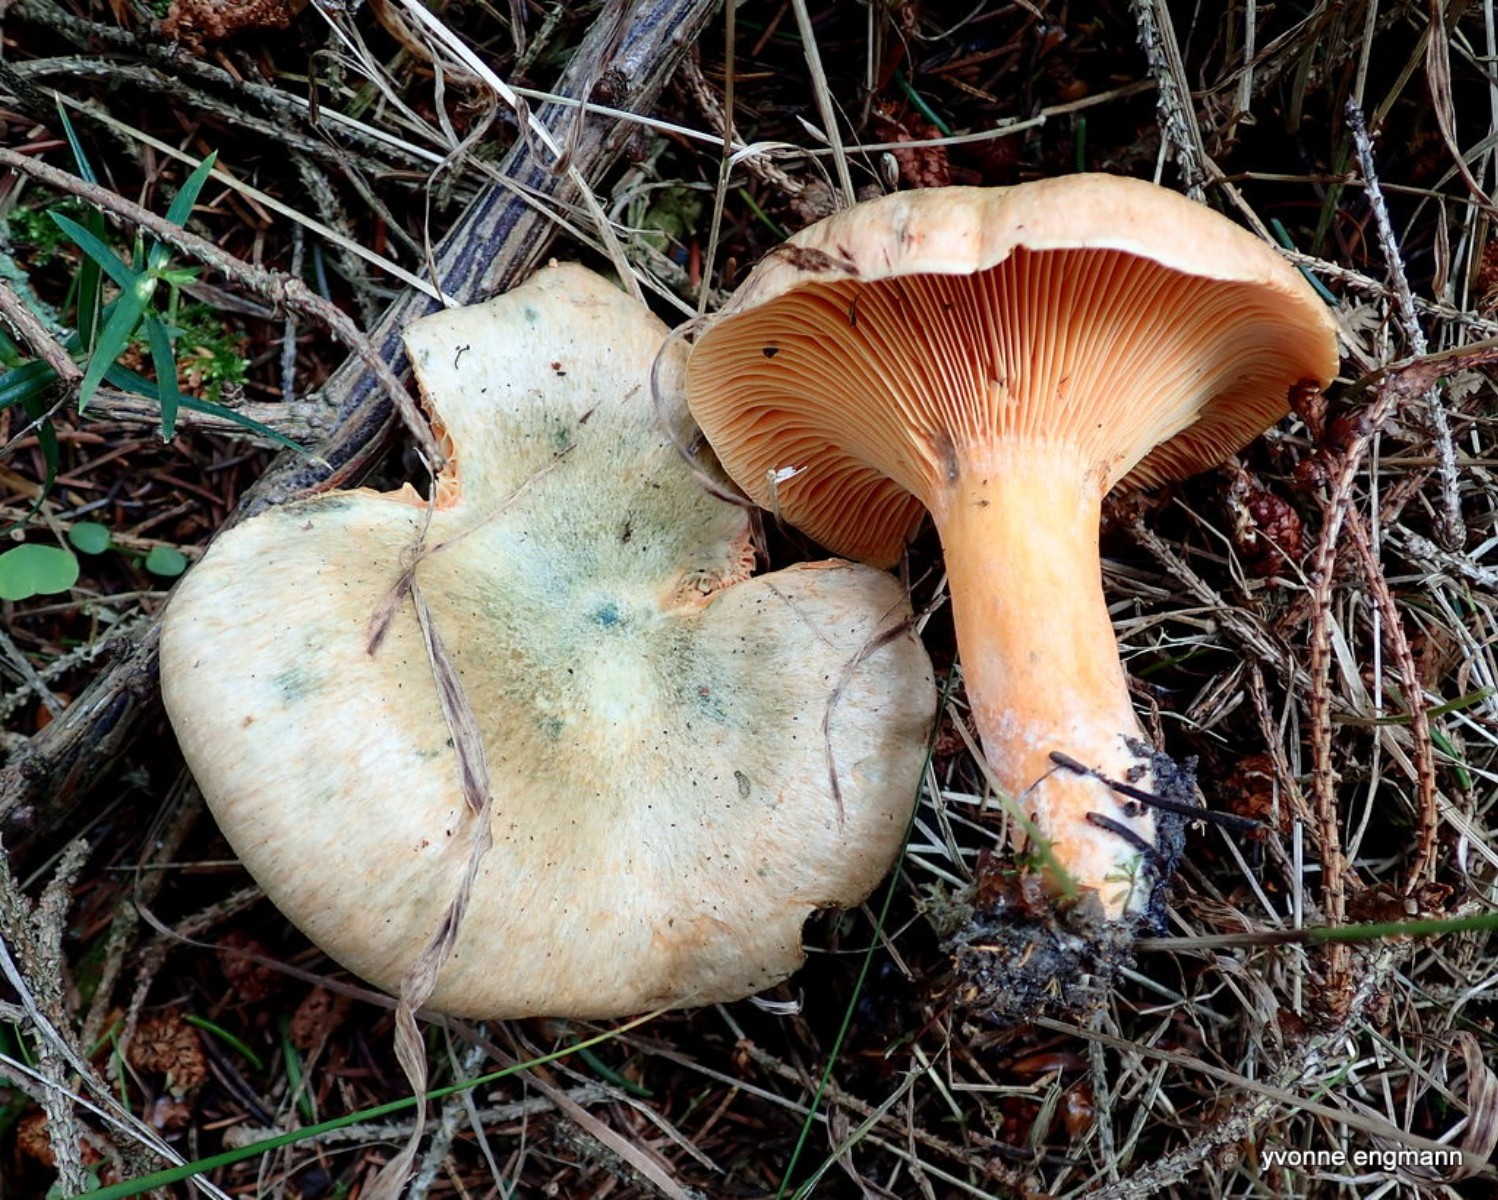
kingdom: Fungi
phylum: Basidiomycota
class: Agaricomycetes
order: Russulales
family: Russulaceae
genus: Lactarius
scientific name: Lactarius deterrimus
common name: gran-mælkehat
